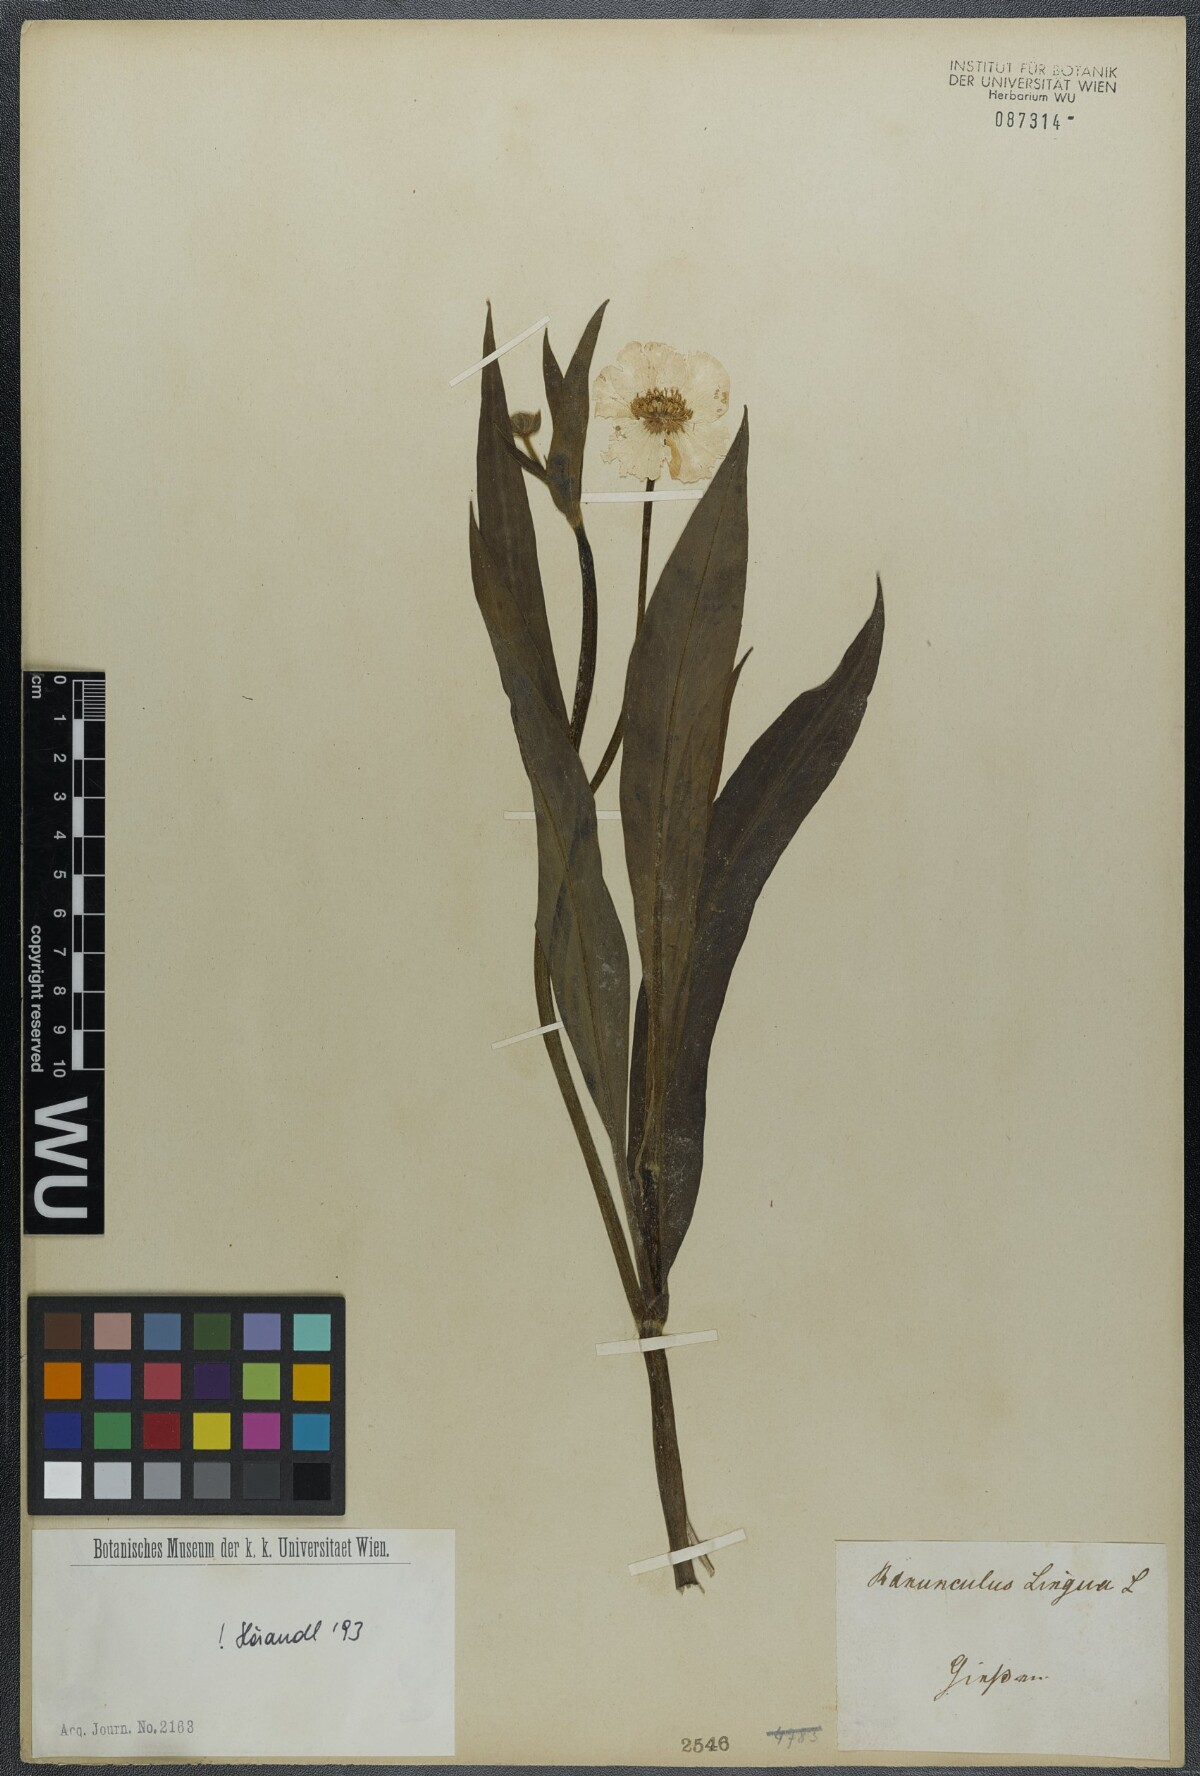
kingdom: Plantae
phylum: Tracheophyta
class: Magnoliopsida
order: Ranunculales
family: Ranunculaceae
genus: Ranunculus
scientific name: Ranunculus lingua
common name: Greater spearwort
